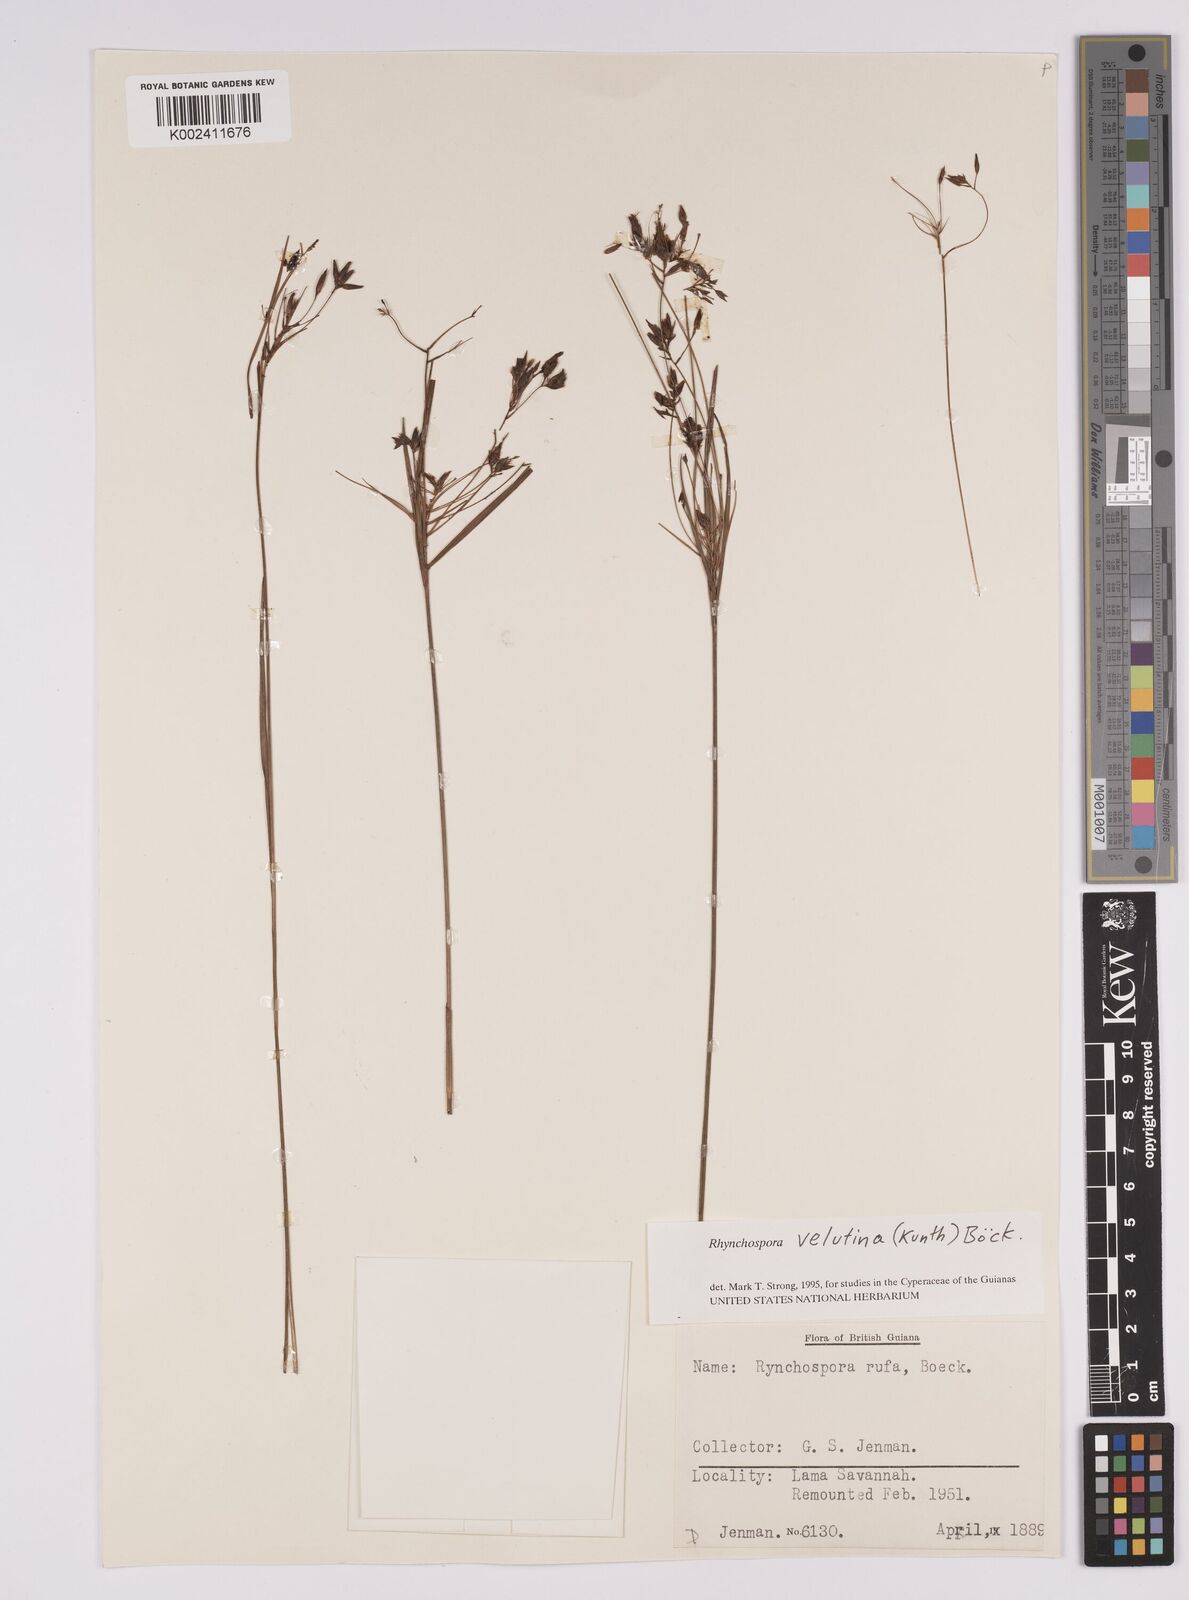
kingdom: Plantae
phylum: Tracheophyta
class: Liliopsida
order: Poales
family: Cyperaceae
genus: Rhynchospora
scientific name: Rhynchospora velutina
